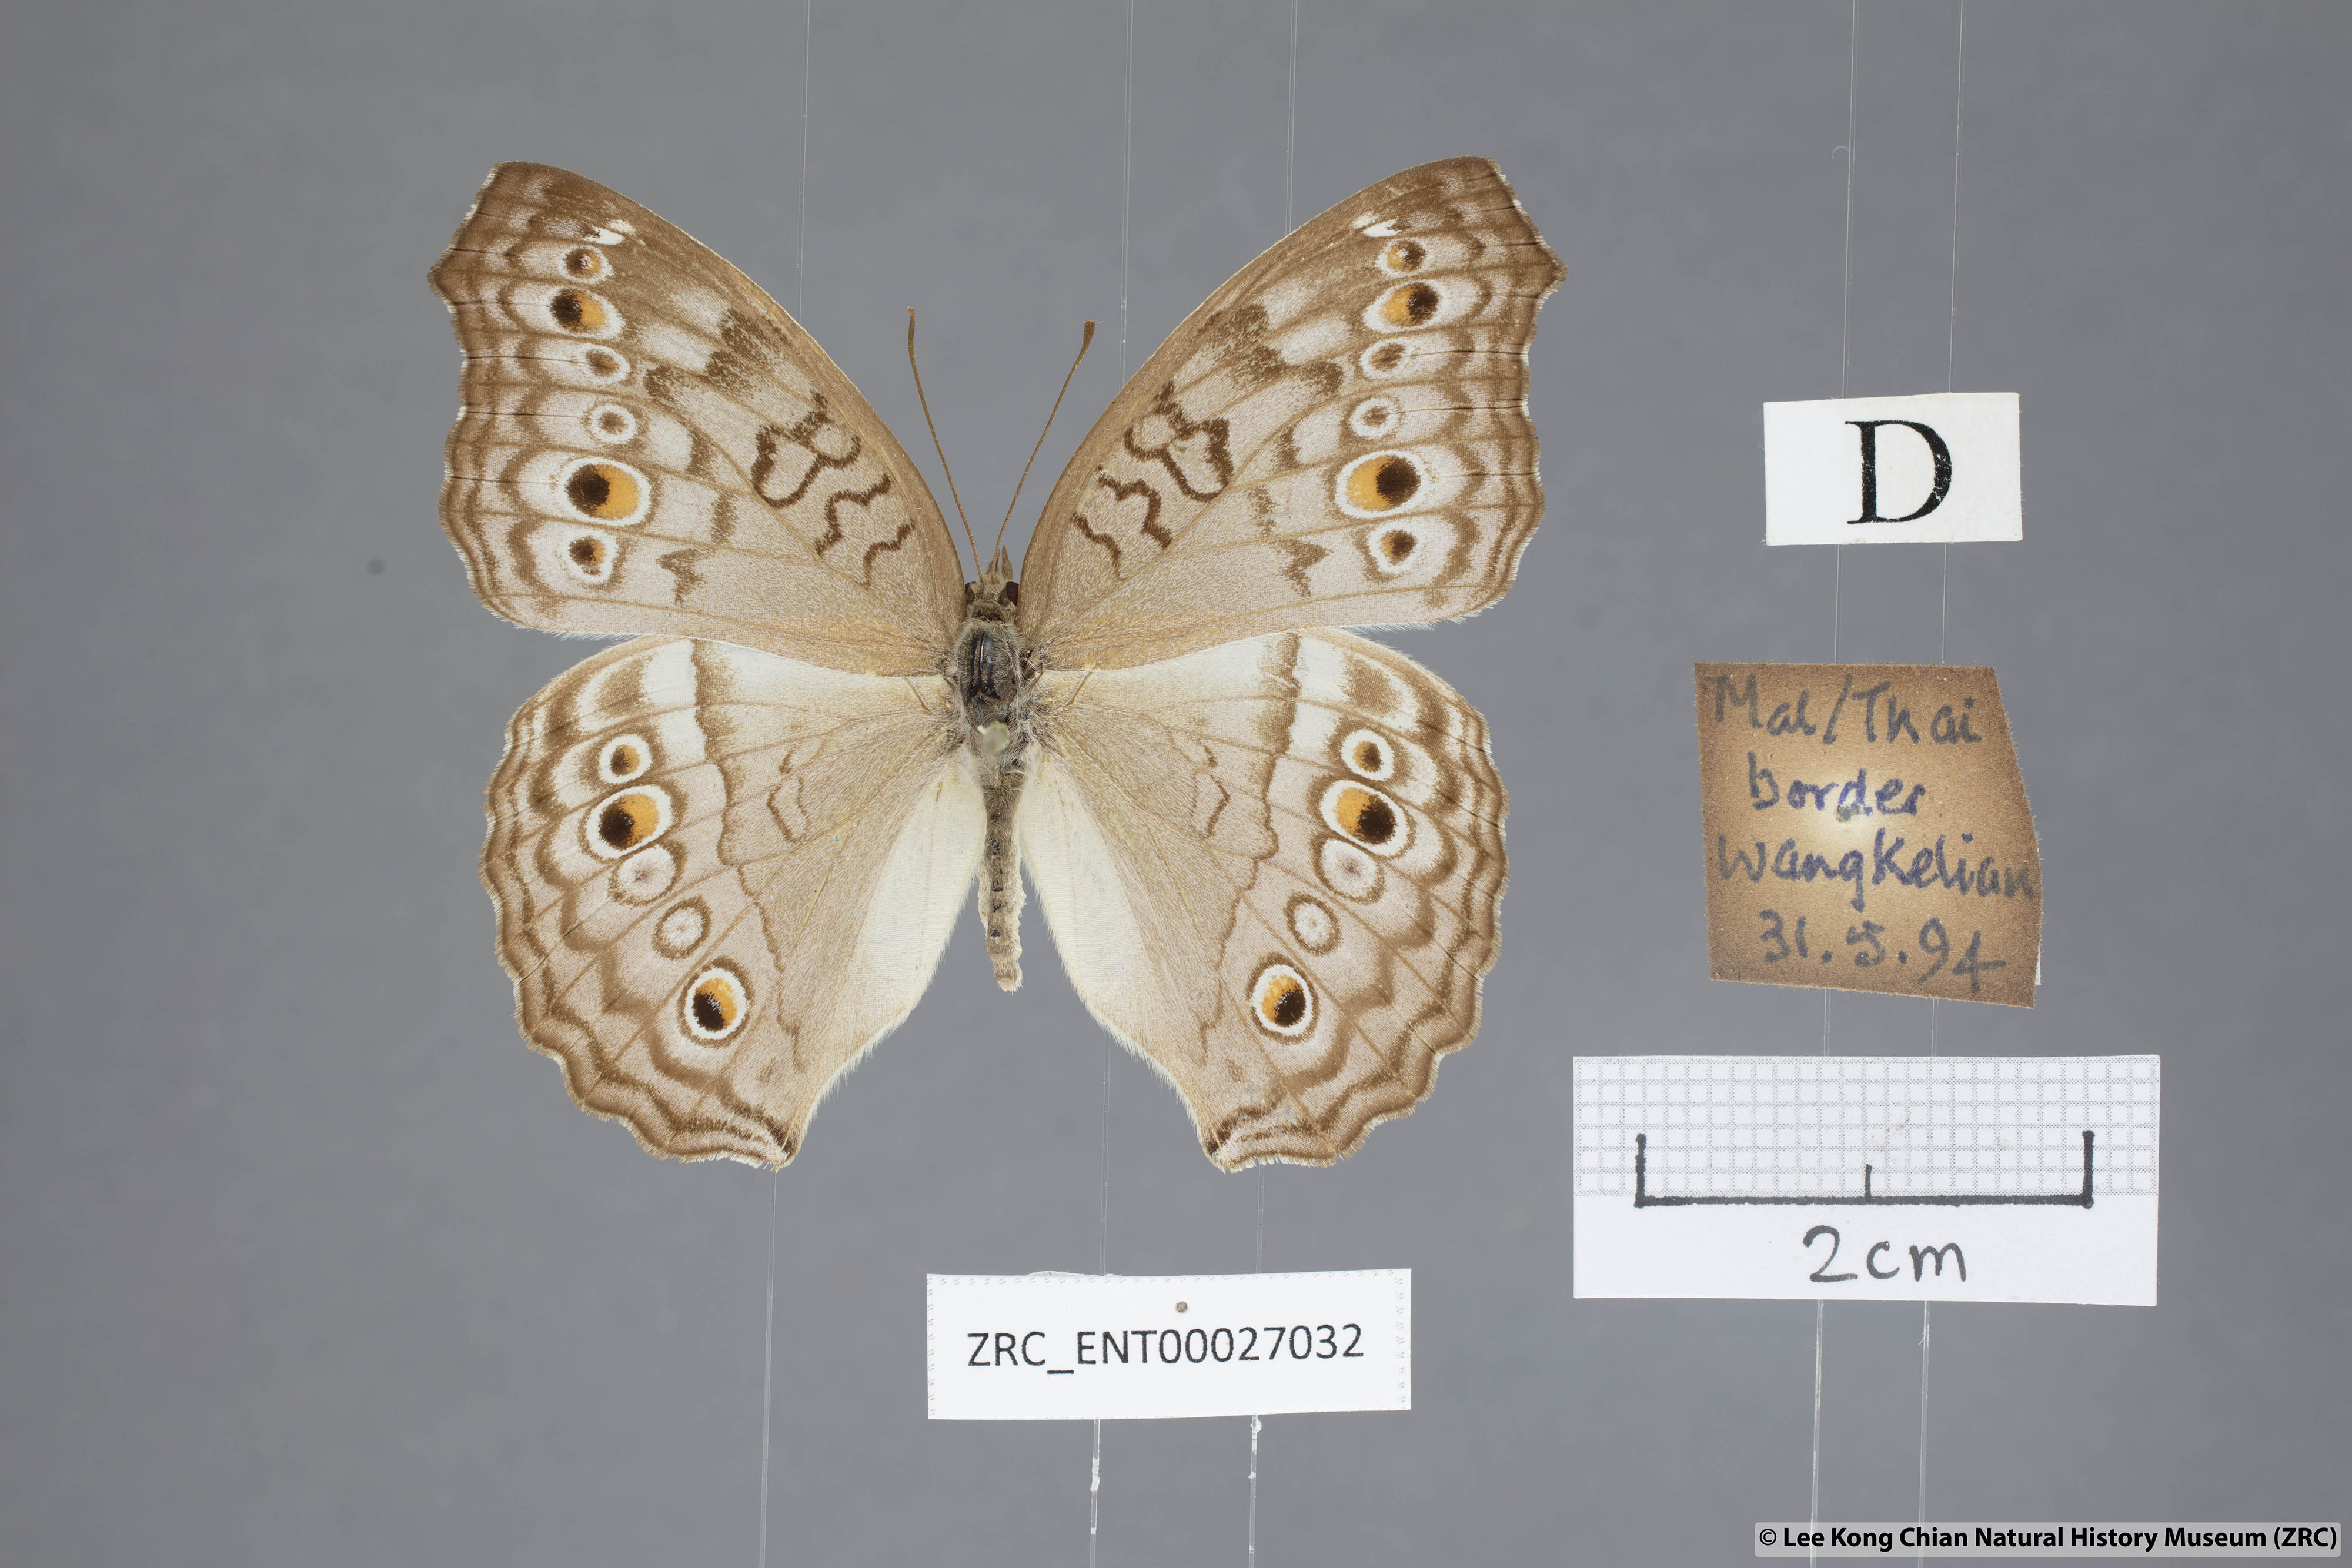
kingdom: Animalia
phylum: Arthropoda
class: Insecta
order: Lepidoptera
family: Nymphalidae
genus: Junonia
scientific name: Junonia atlites
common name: Grey pansy
